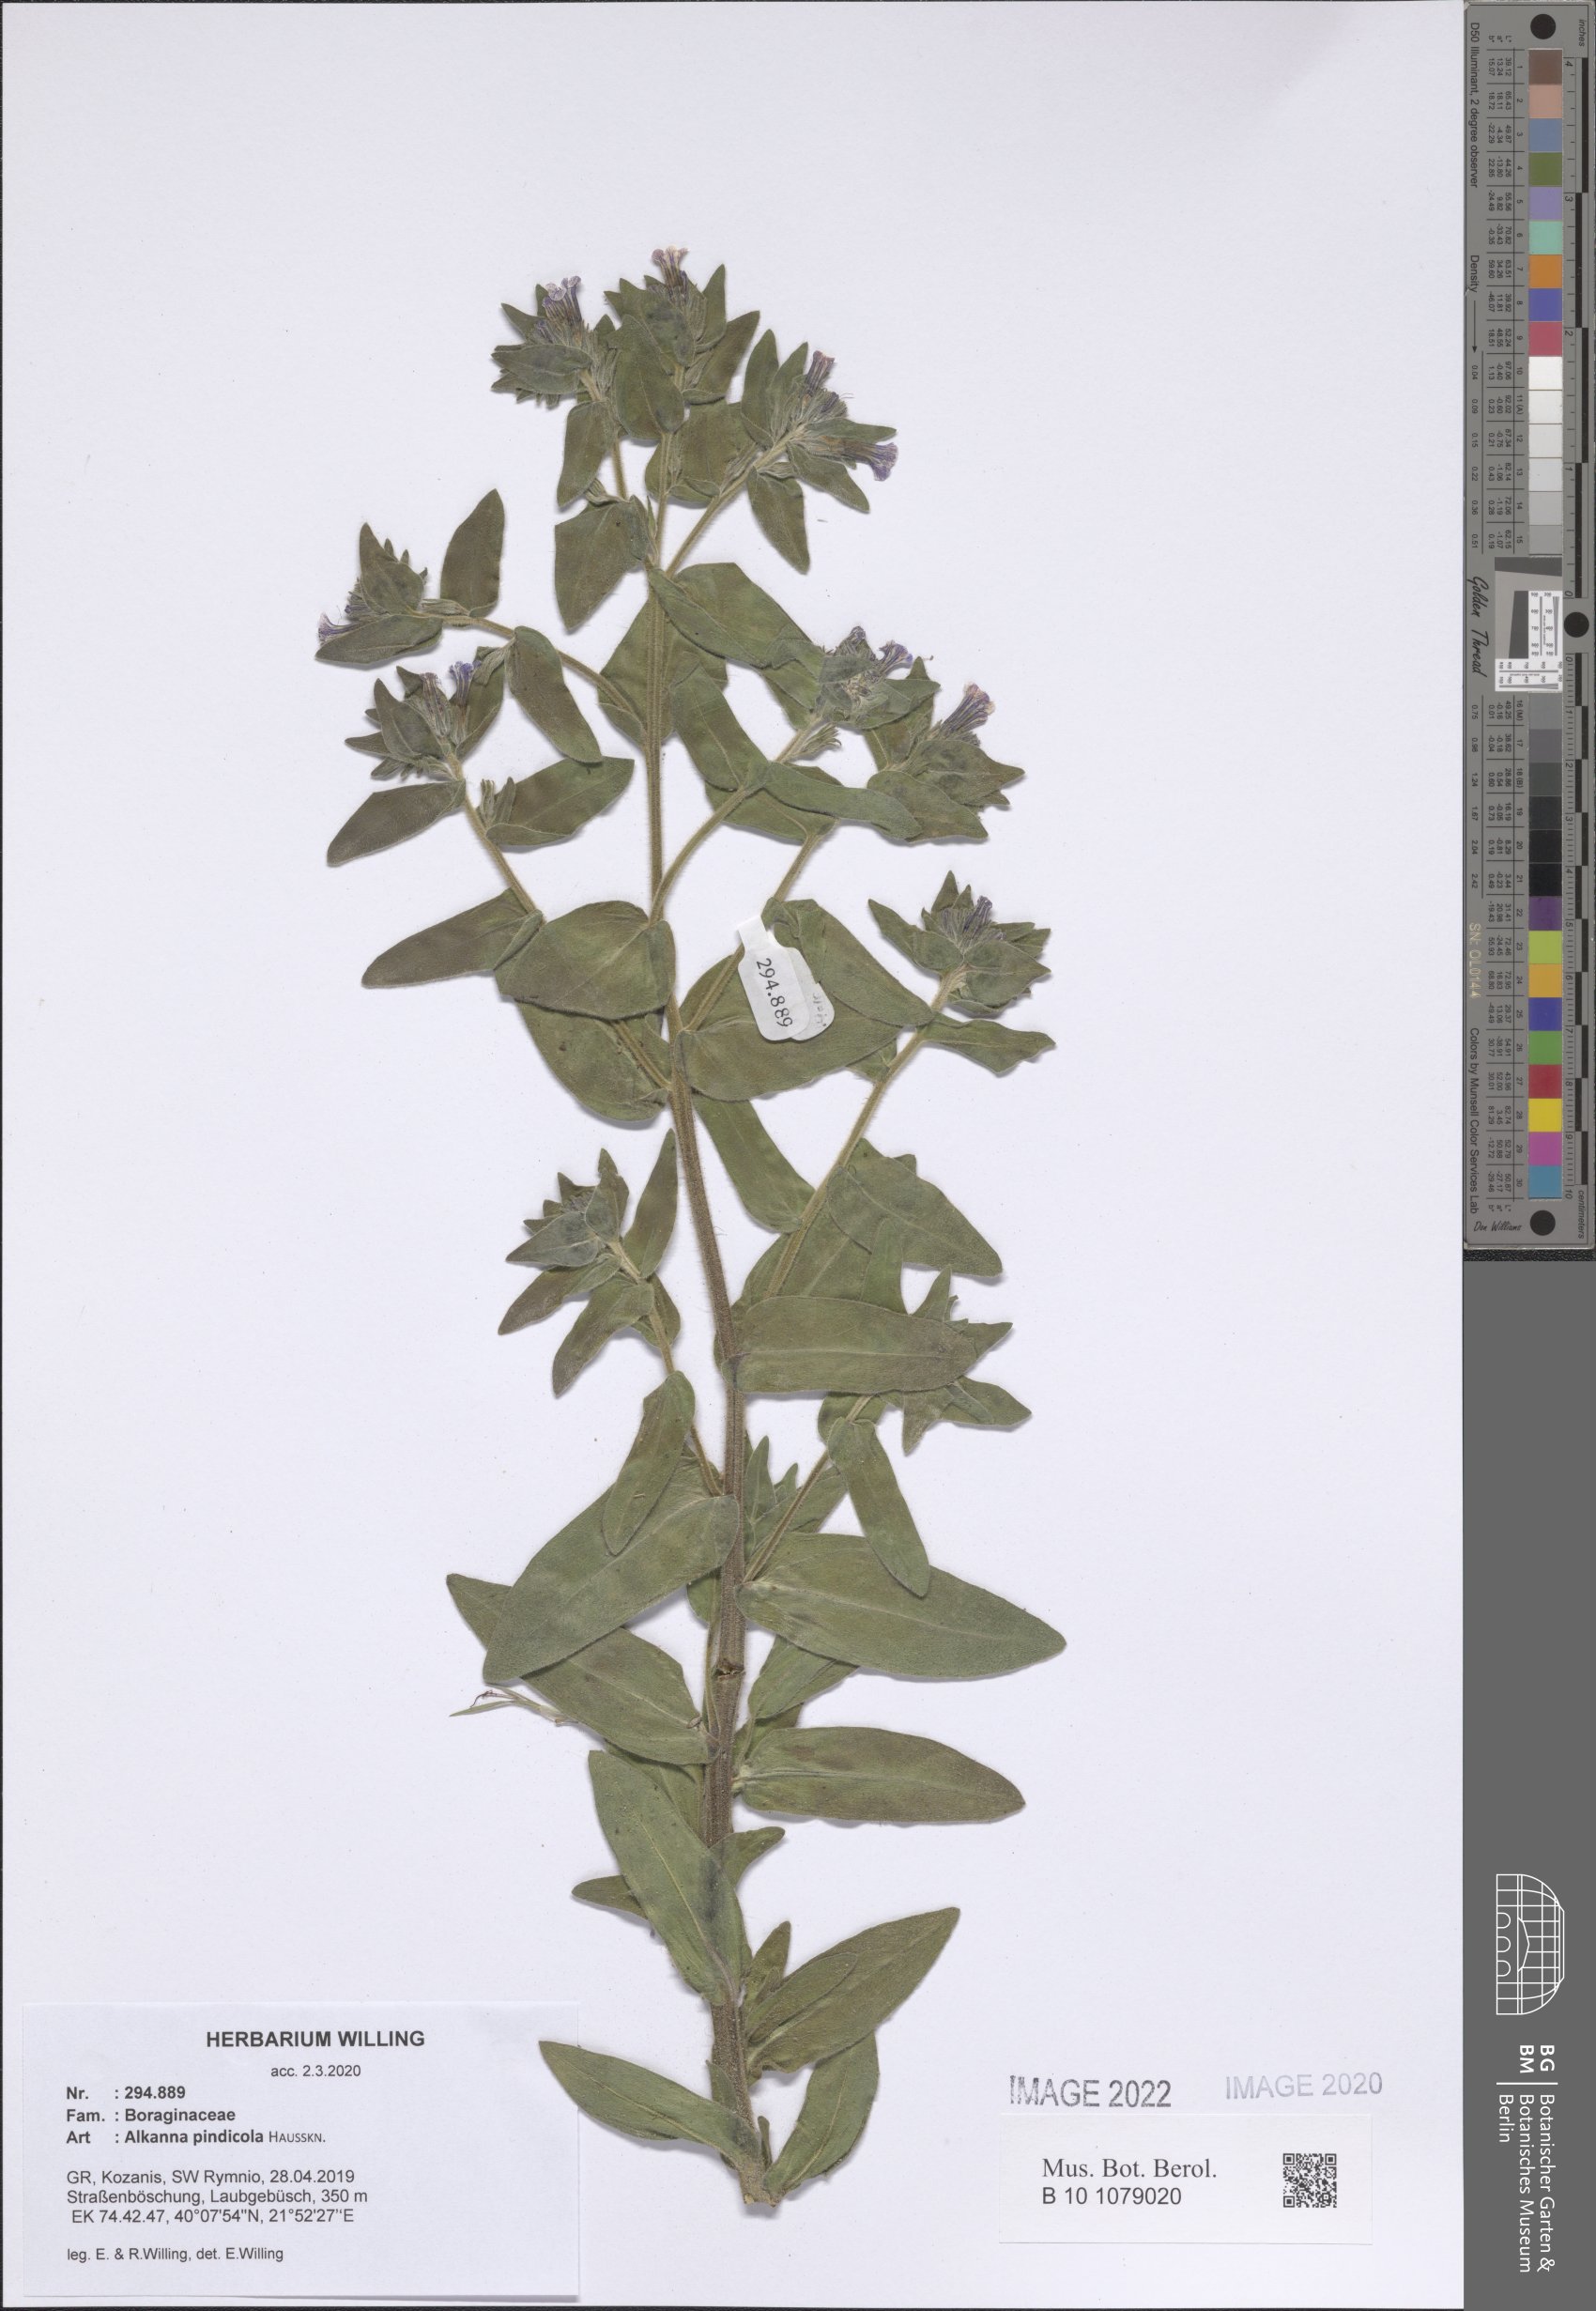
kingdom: Plantae
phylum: Tracheophyta
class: Magnoliopsida
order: Boraginales
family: Boraginaceae
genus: Alkanna
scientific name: Alkanna pindicola
